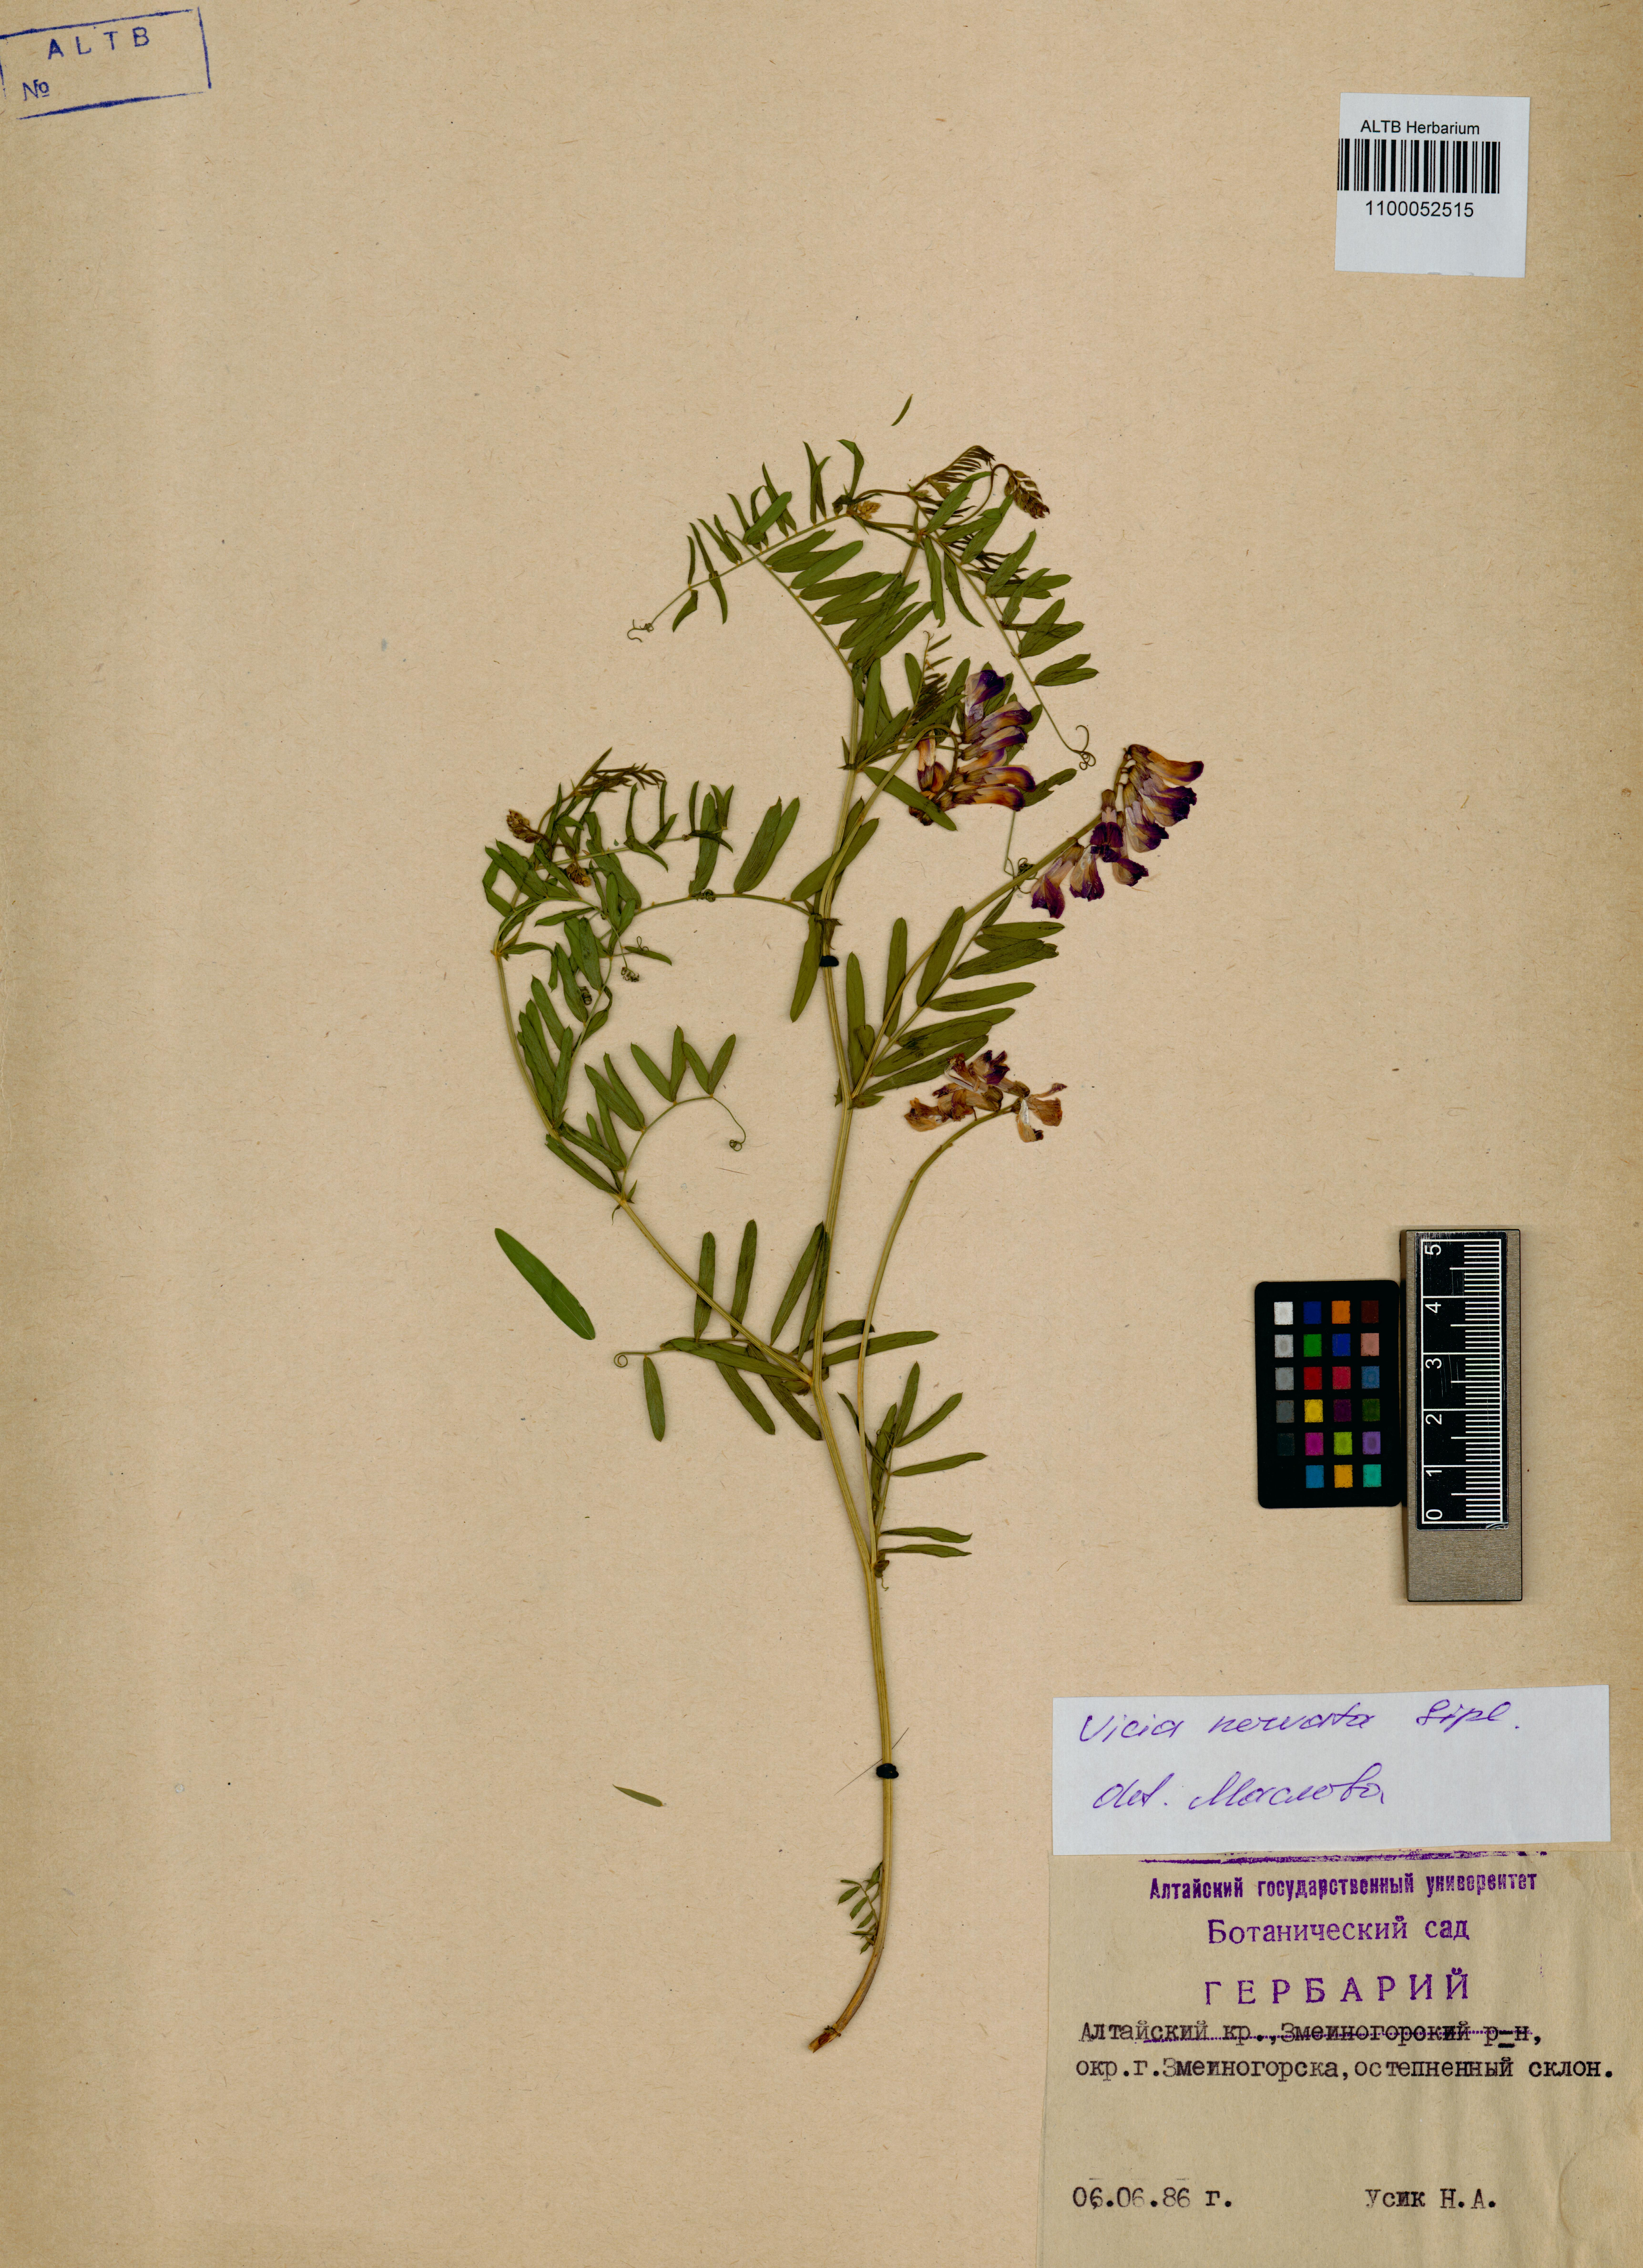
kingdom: Plantae
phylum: Tracheophyta
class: Magnoliopsida
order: Fabales
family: Fabaceae
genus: Vicia
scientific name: Vicia multicaulis
